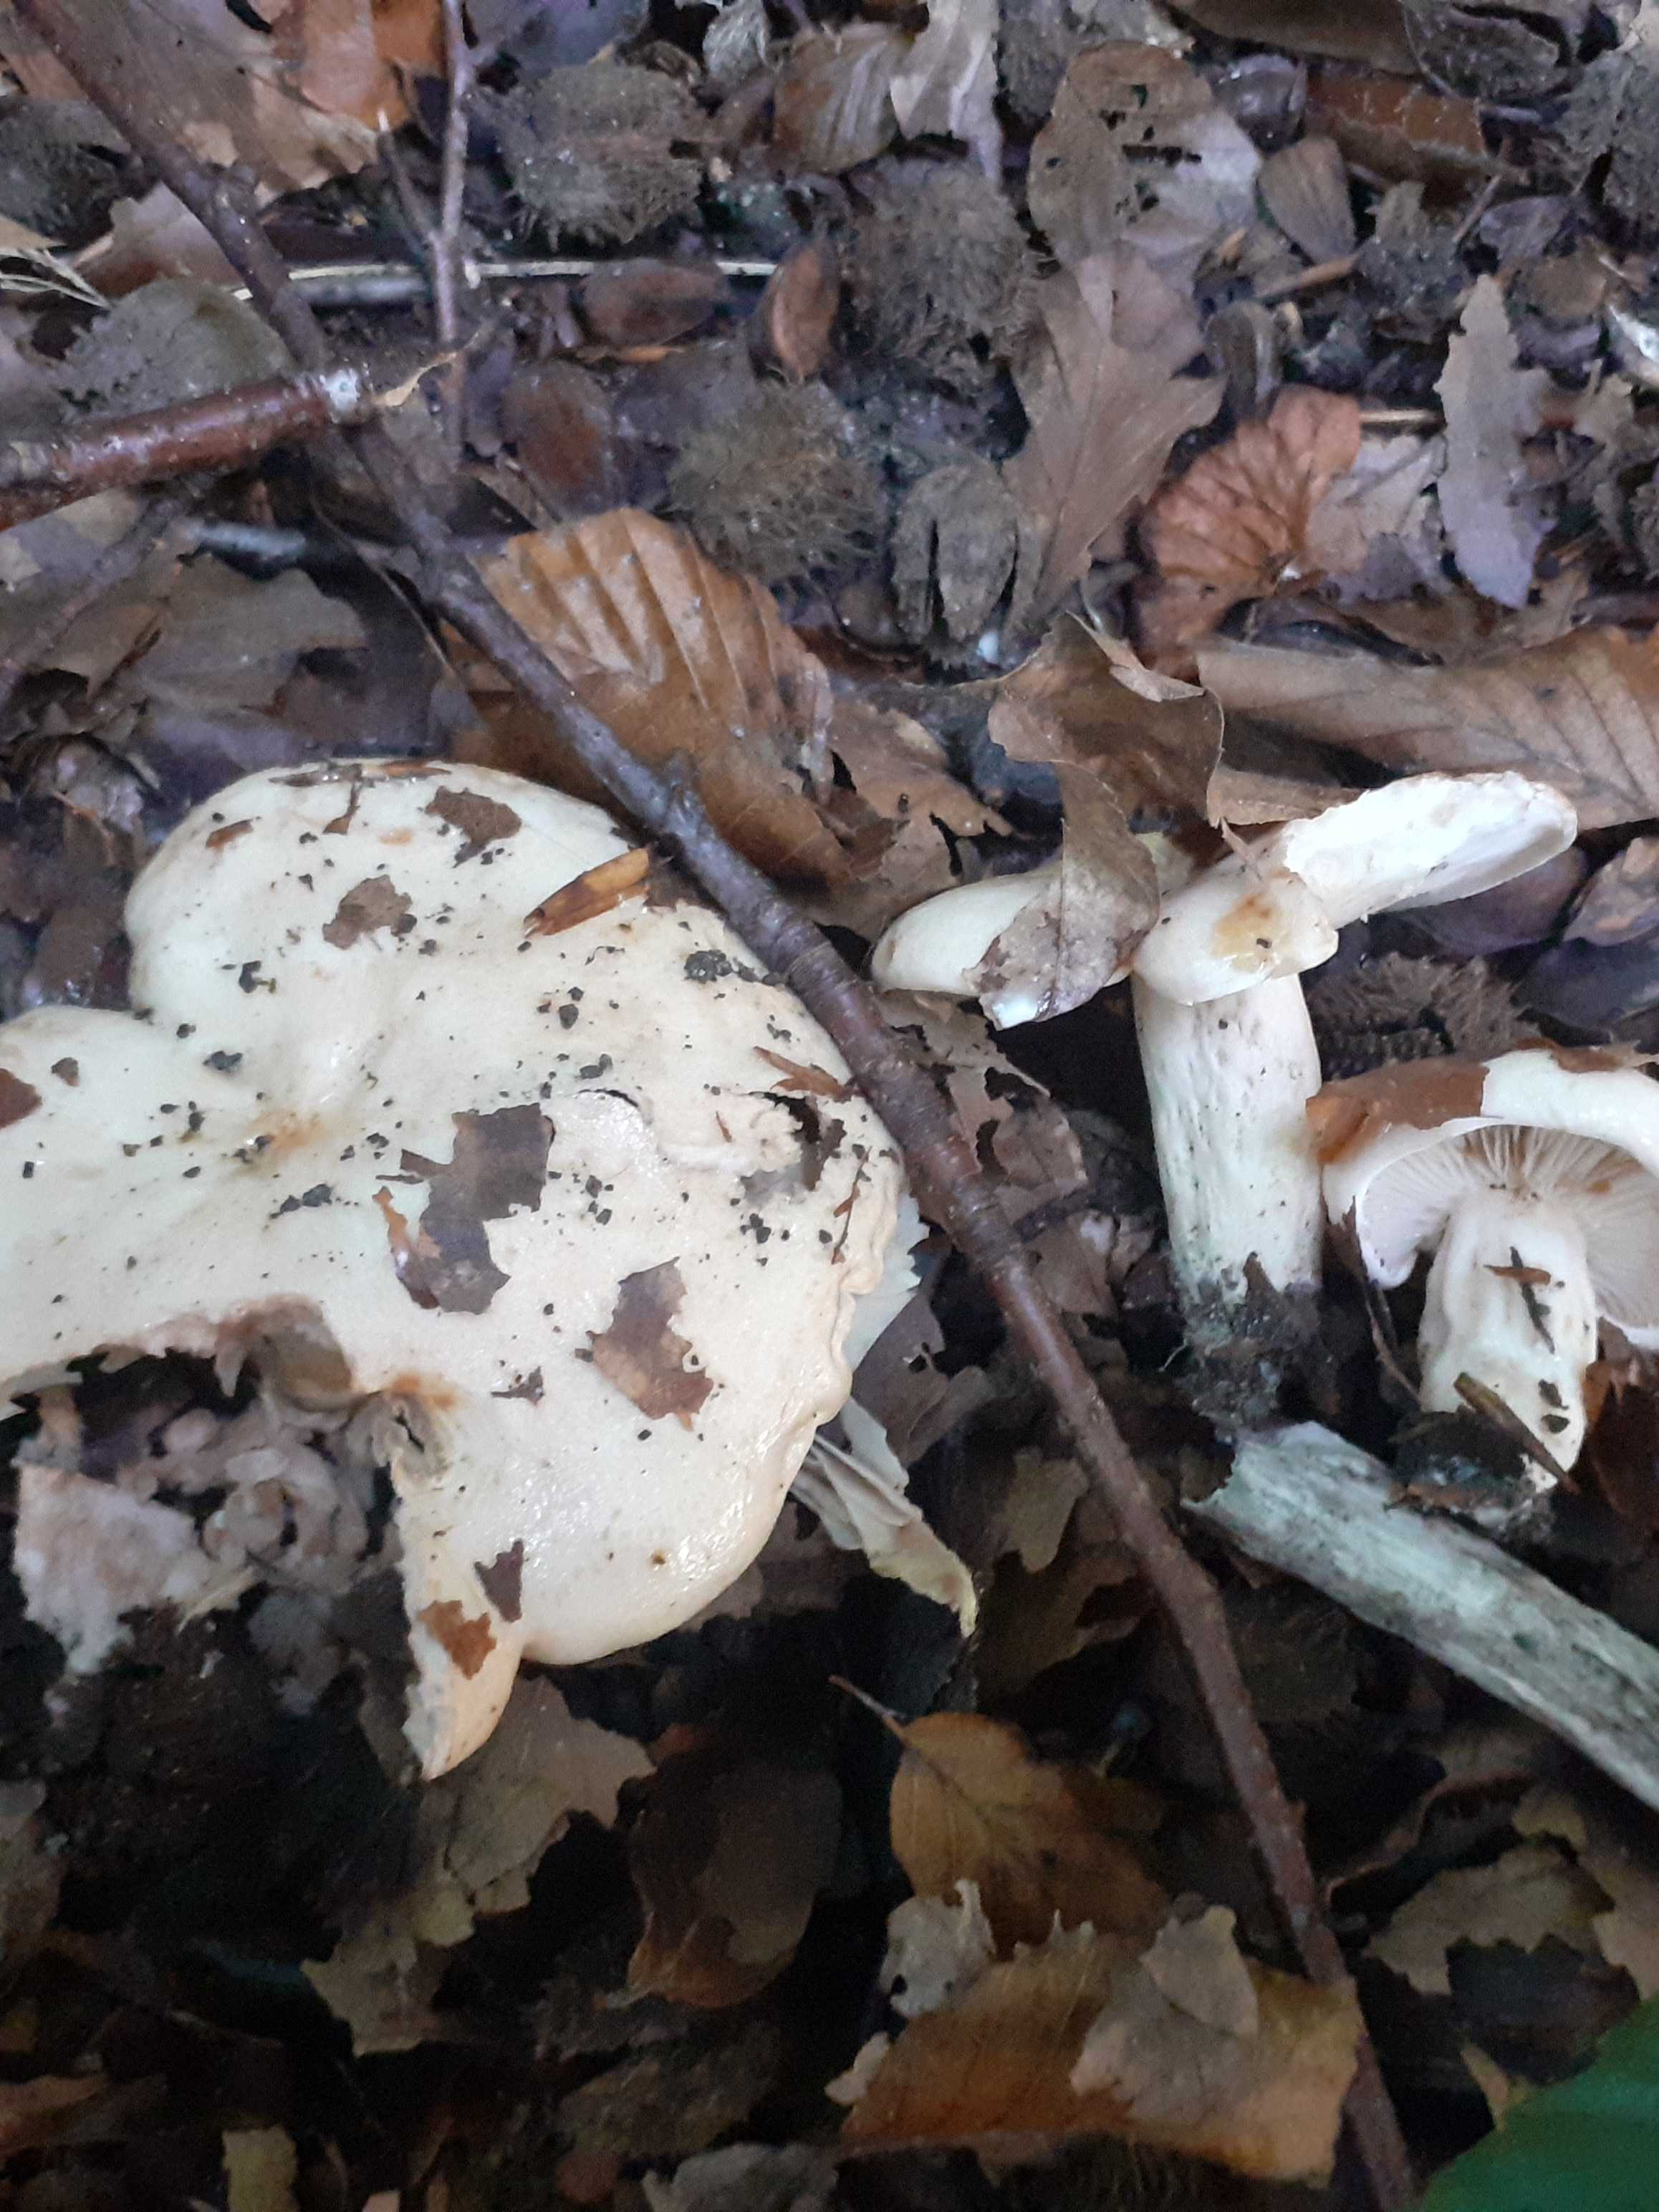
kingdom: Fungi
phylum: Basidiomycota
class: Agaricomycetes
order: Russulales
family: Russulaceae
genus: Lactarius
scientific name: Lactarius pallidus
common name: bleg mælkehat
